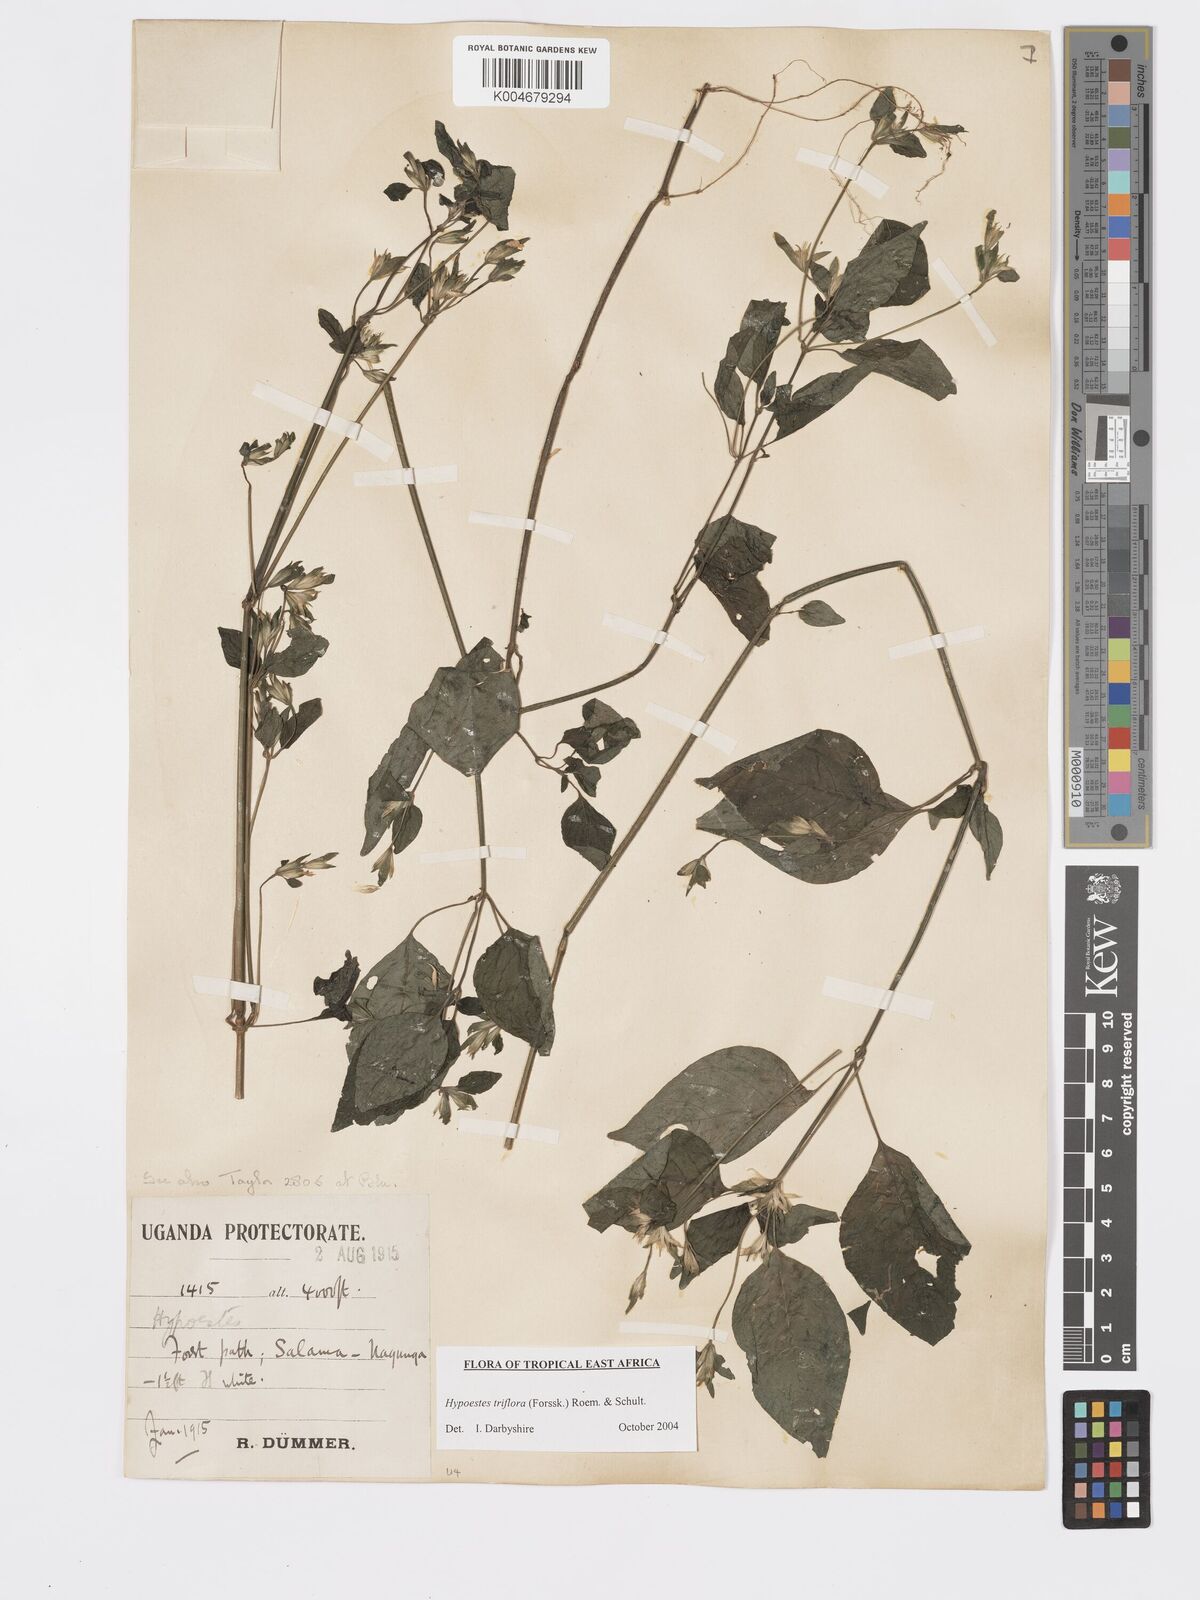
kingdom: Plantae
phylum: Tracheophyta
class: Magnoliopsida
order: Lamiales
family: Acanthaceae
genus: Hypoestes
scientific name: Hypoestes triflora
